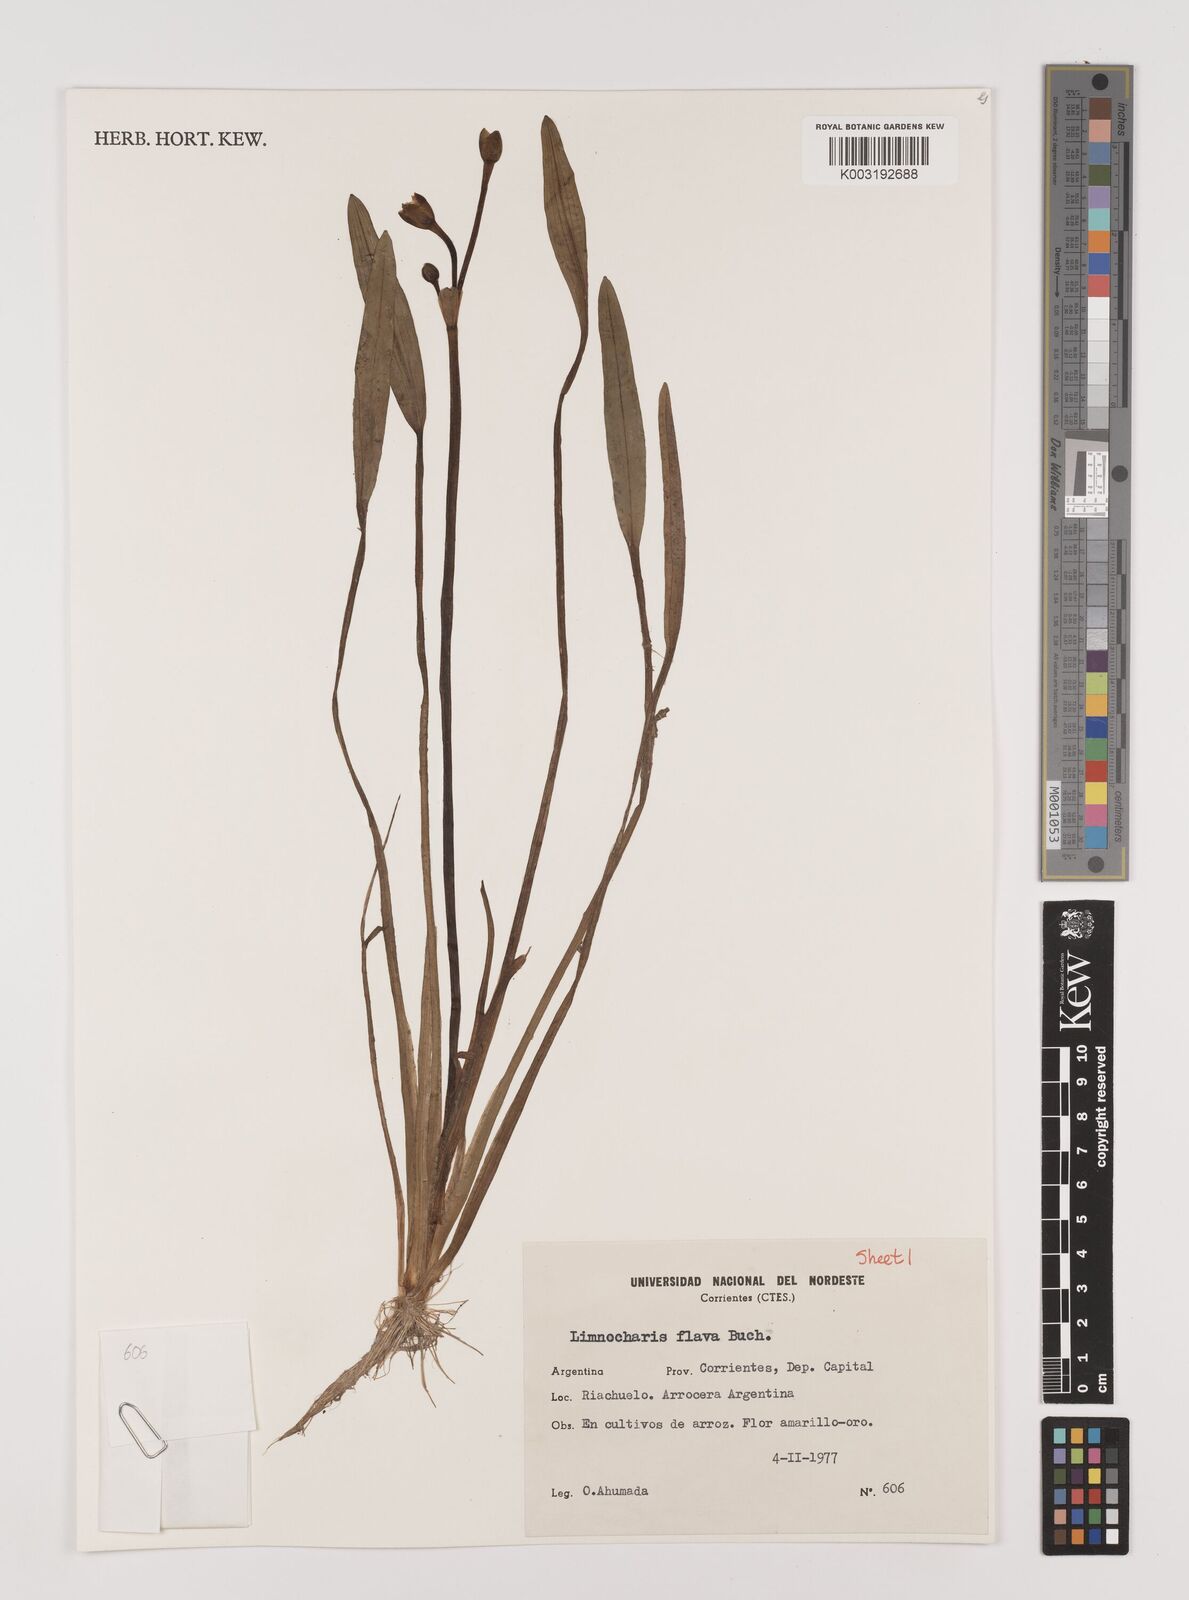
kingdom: Plantae
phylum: Tracheophyta
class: Liliopsida
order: Alismatales
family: Alismataceae
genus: Limnocharis
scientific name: Limnocharis flava
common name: Sawah-flower-rush
